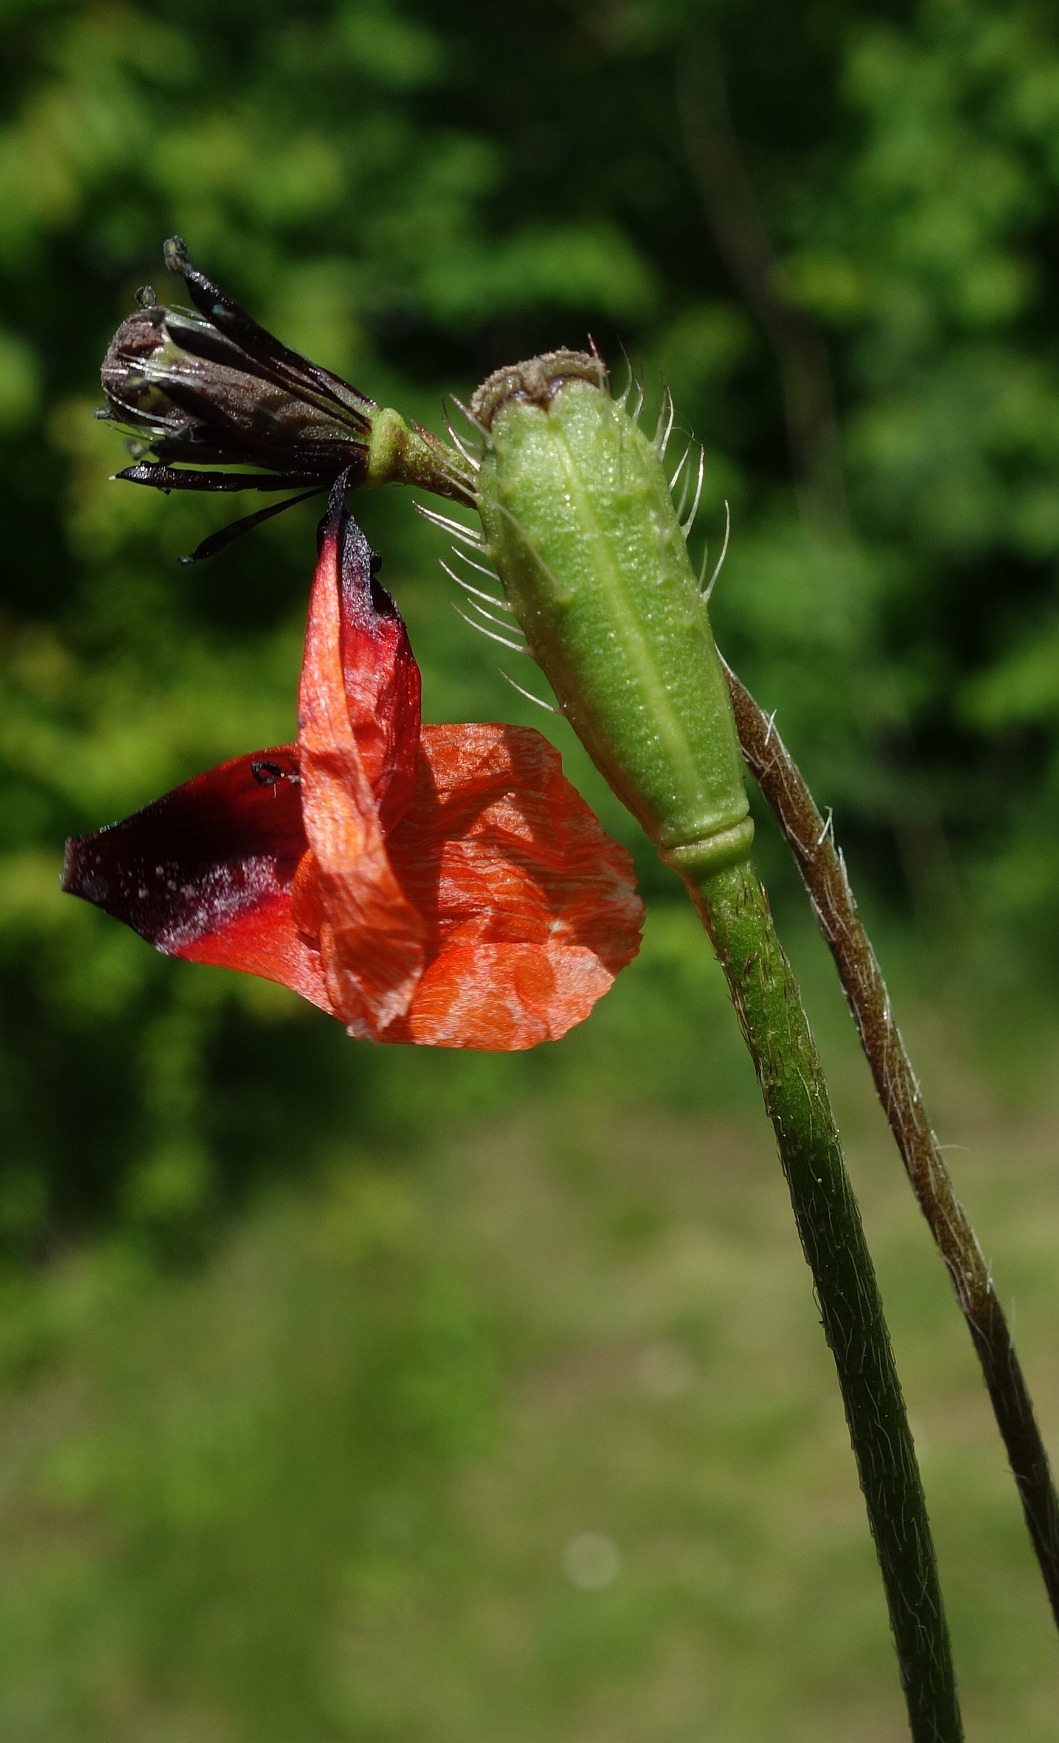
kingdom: Plantae
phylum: Tracheophyta
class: Magnoliopsida
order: Ranunculales
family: Papaveraceae
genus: Roemeria
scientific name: Roemeria argemone
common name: Kølle-valmue
